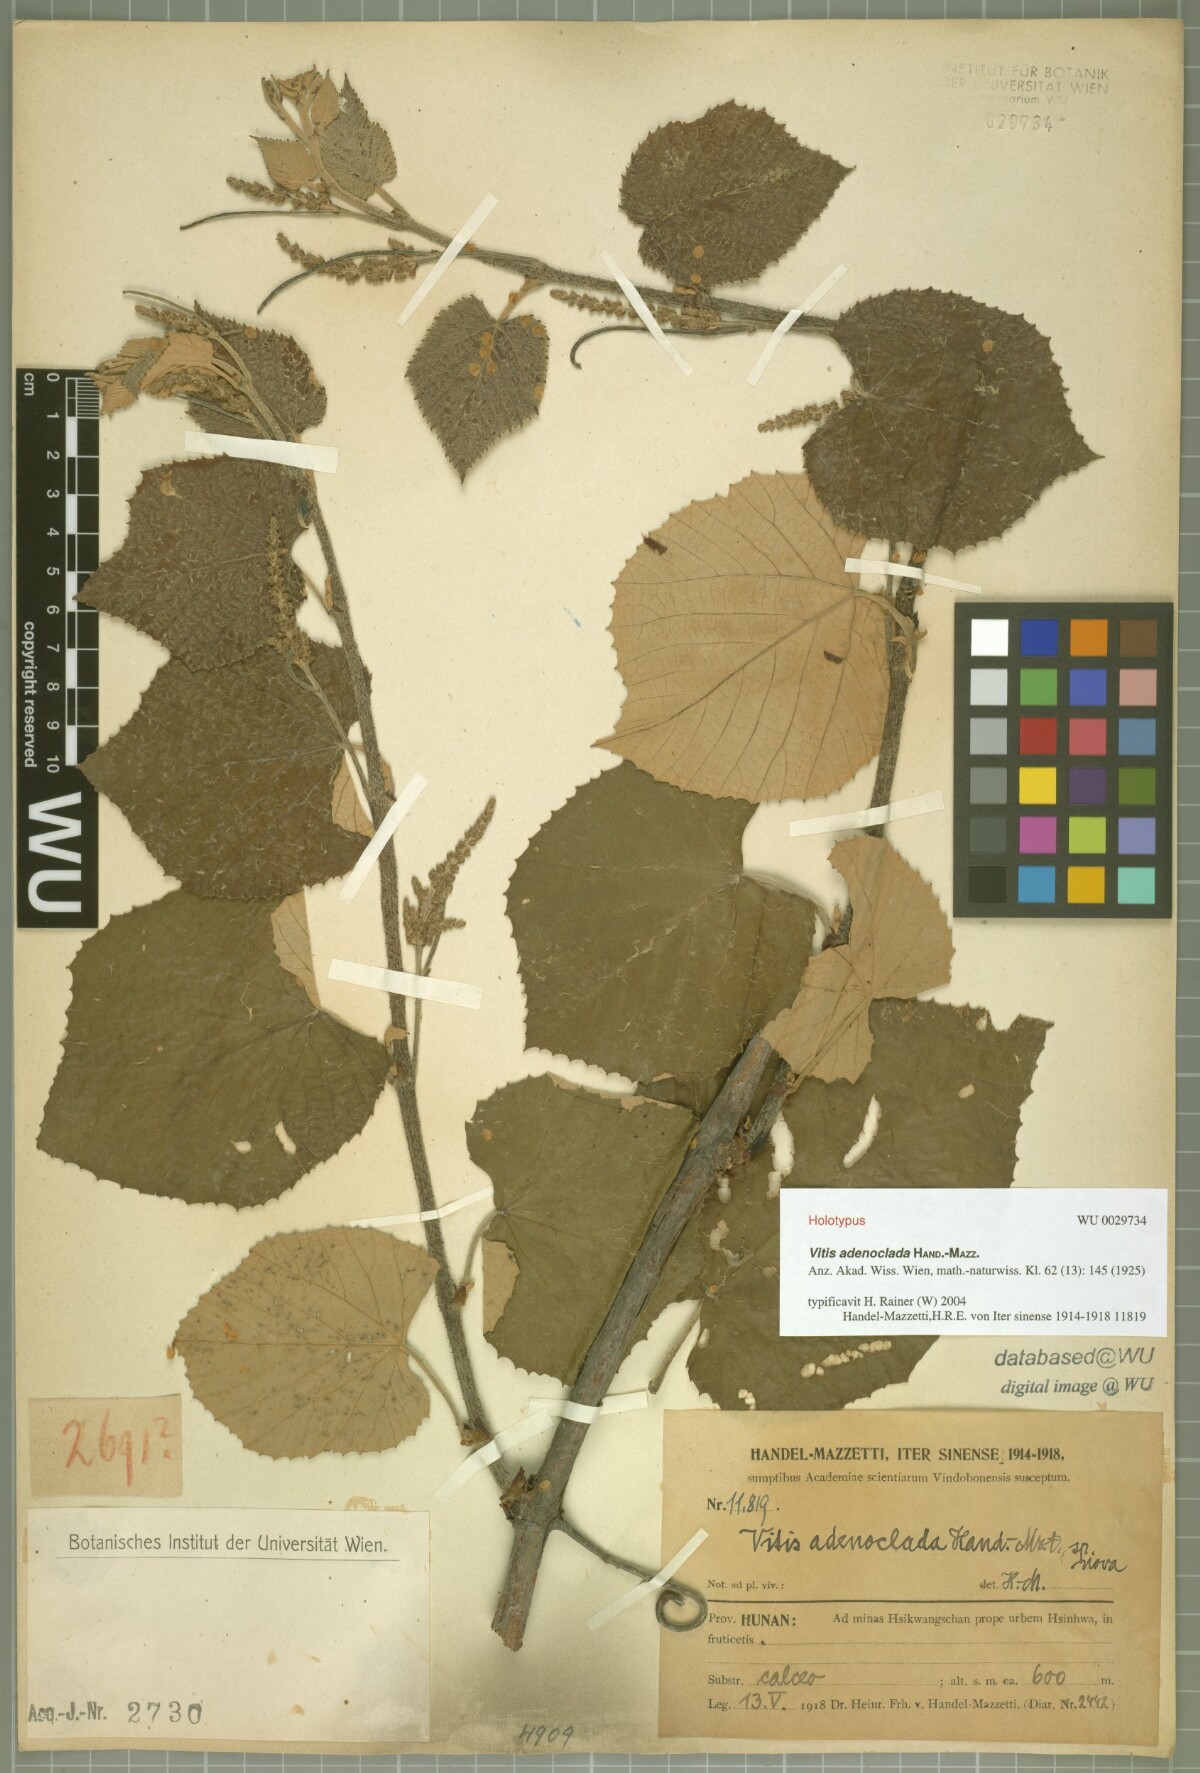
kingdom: Plantae
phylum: Tracheophyta
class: Magnoliopsida
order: Vitales
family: Vitaceae
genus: Vitis
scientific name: Vitis adenoclada
